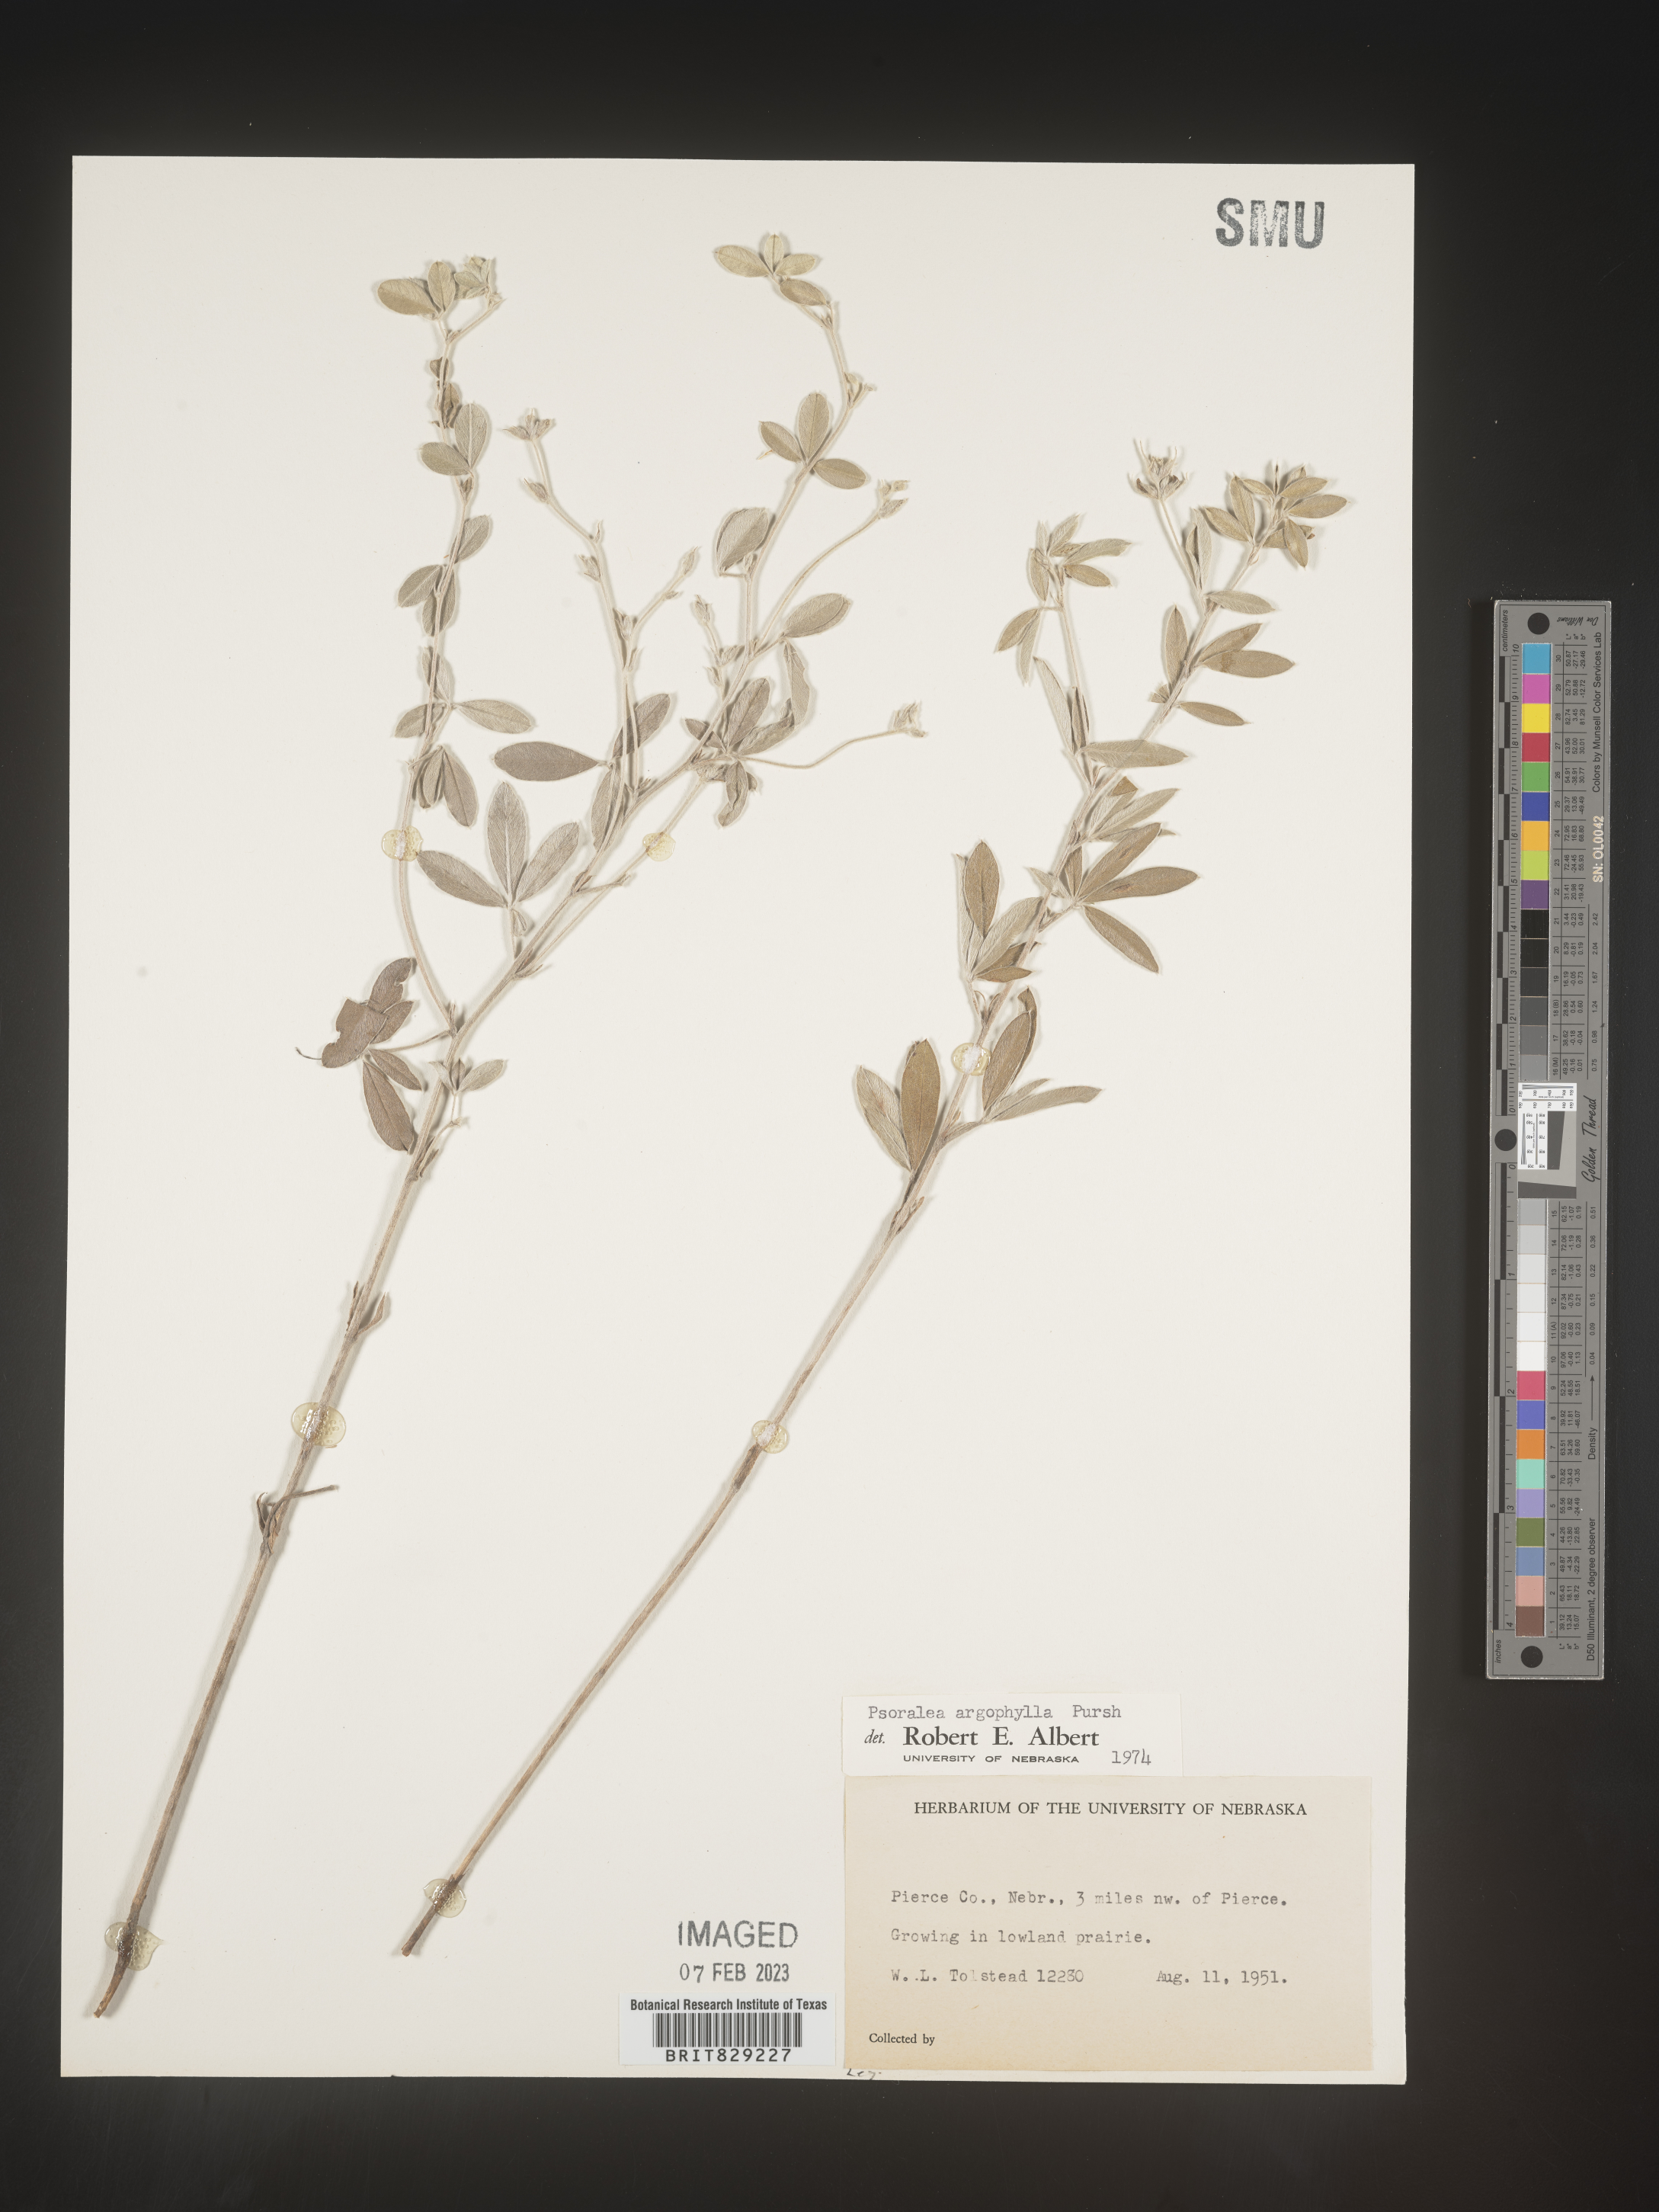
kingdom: Plantae
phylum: Tracheophyta
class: Magnoliopsida
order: Fabales
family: Fabaceae
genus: Pediomelum
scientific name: Pediomelum argophyllum
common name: Silver-leaved indian breadroot
